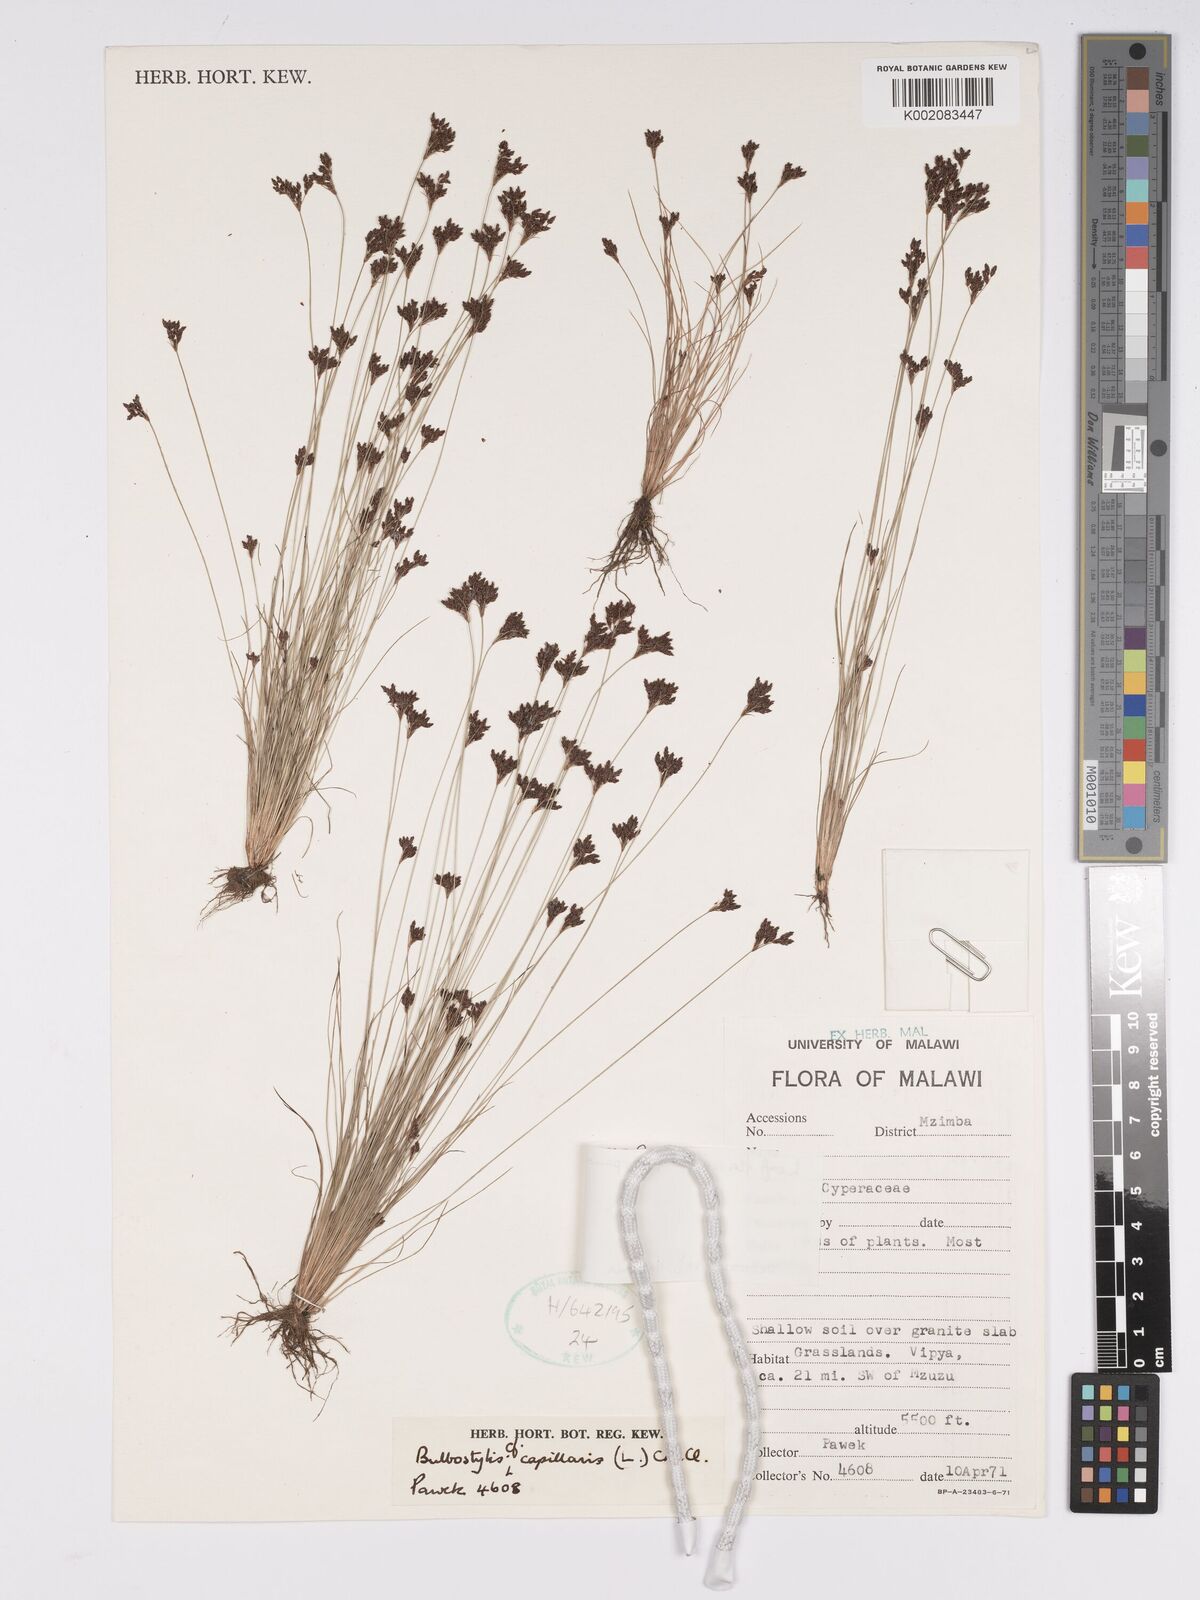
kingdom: Plantae
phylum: Tracheophyta
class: Liliopsida
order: Poales
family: Cyperaceae
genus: Bulbostylis
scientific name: Bulbostylis capillaris
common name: Densetuft hairsedge
